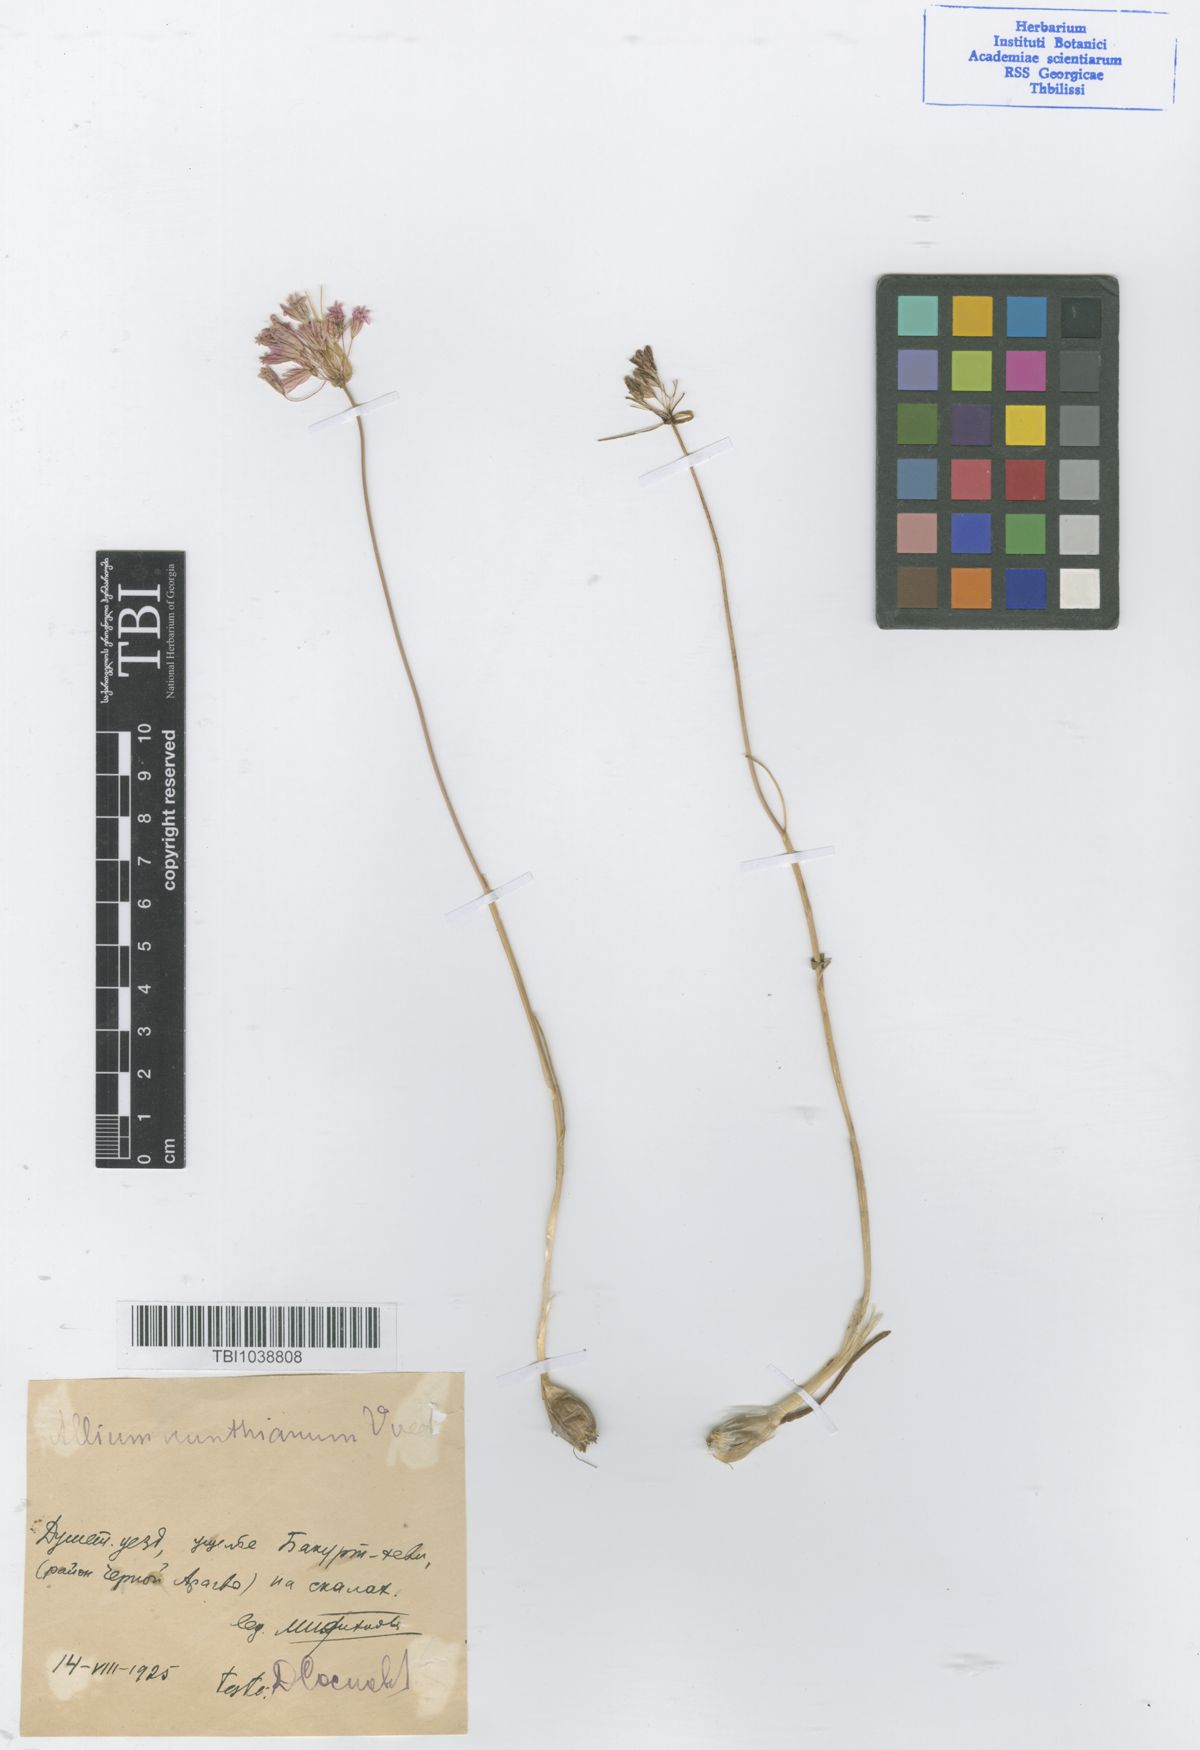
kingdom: Plantae
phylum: Tracheophyta
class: Liliopsida
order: Asparagales
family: Amaryllidaceae
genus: Allium
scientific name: Allium kunthianum
